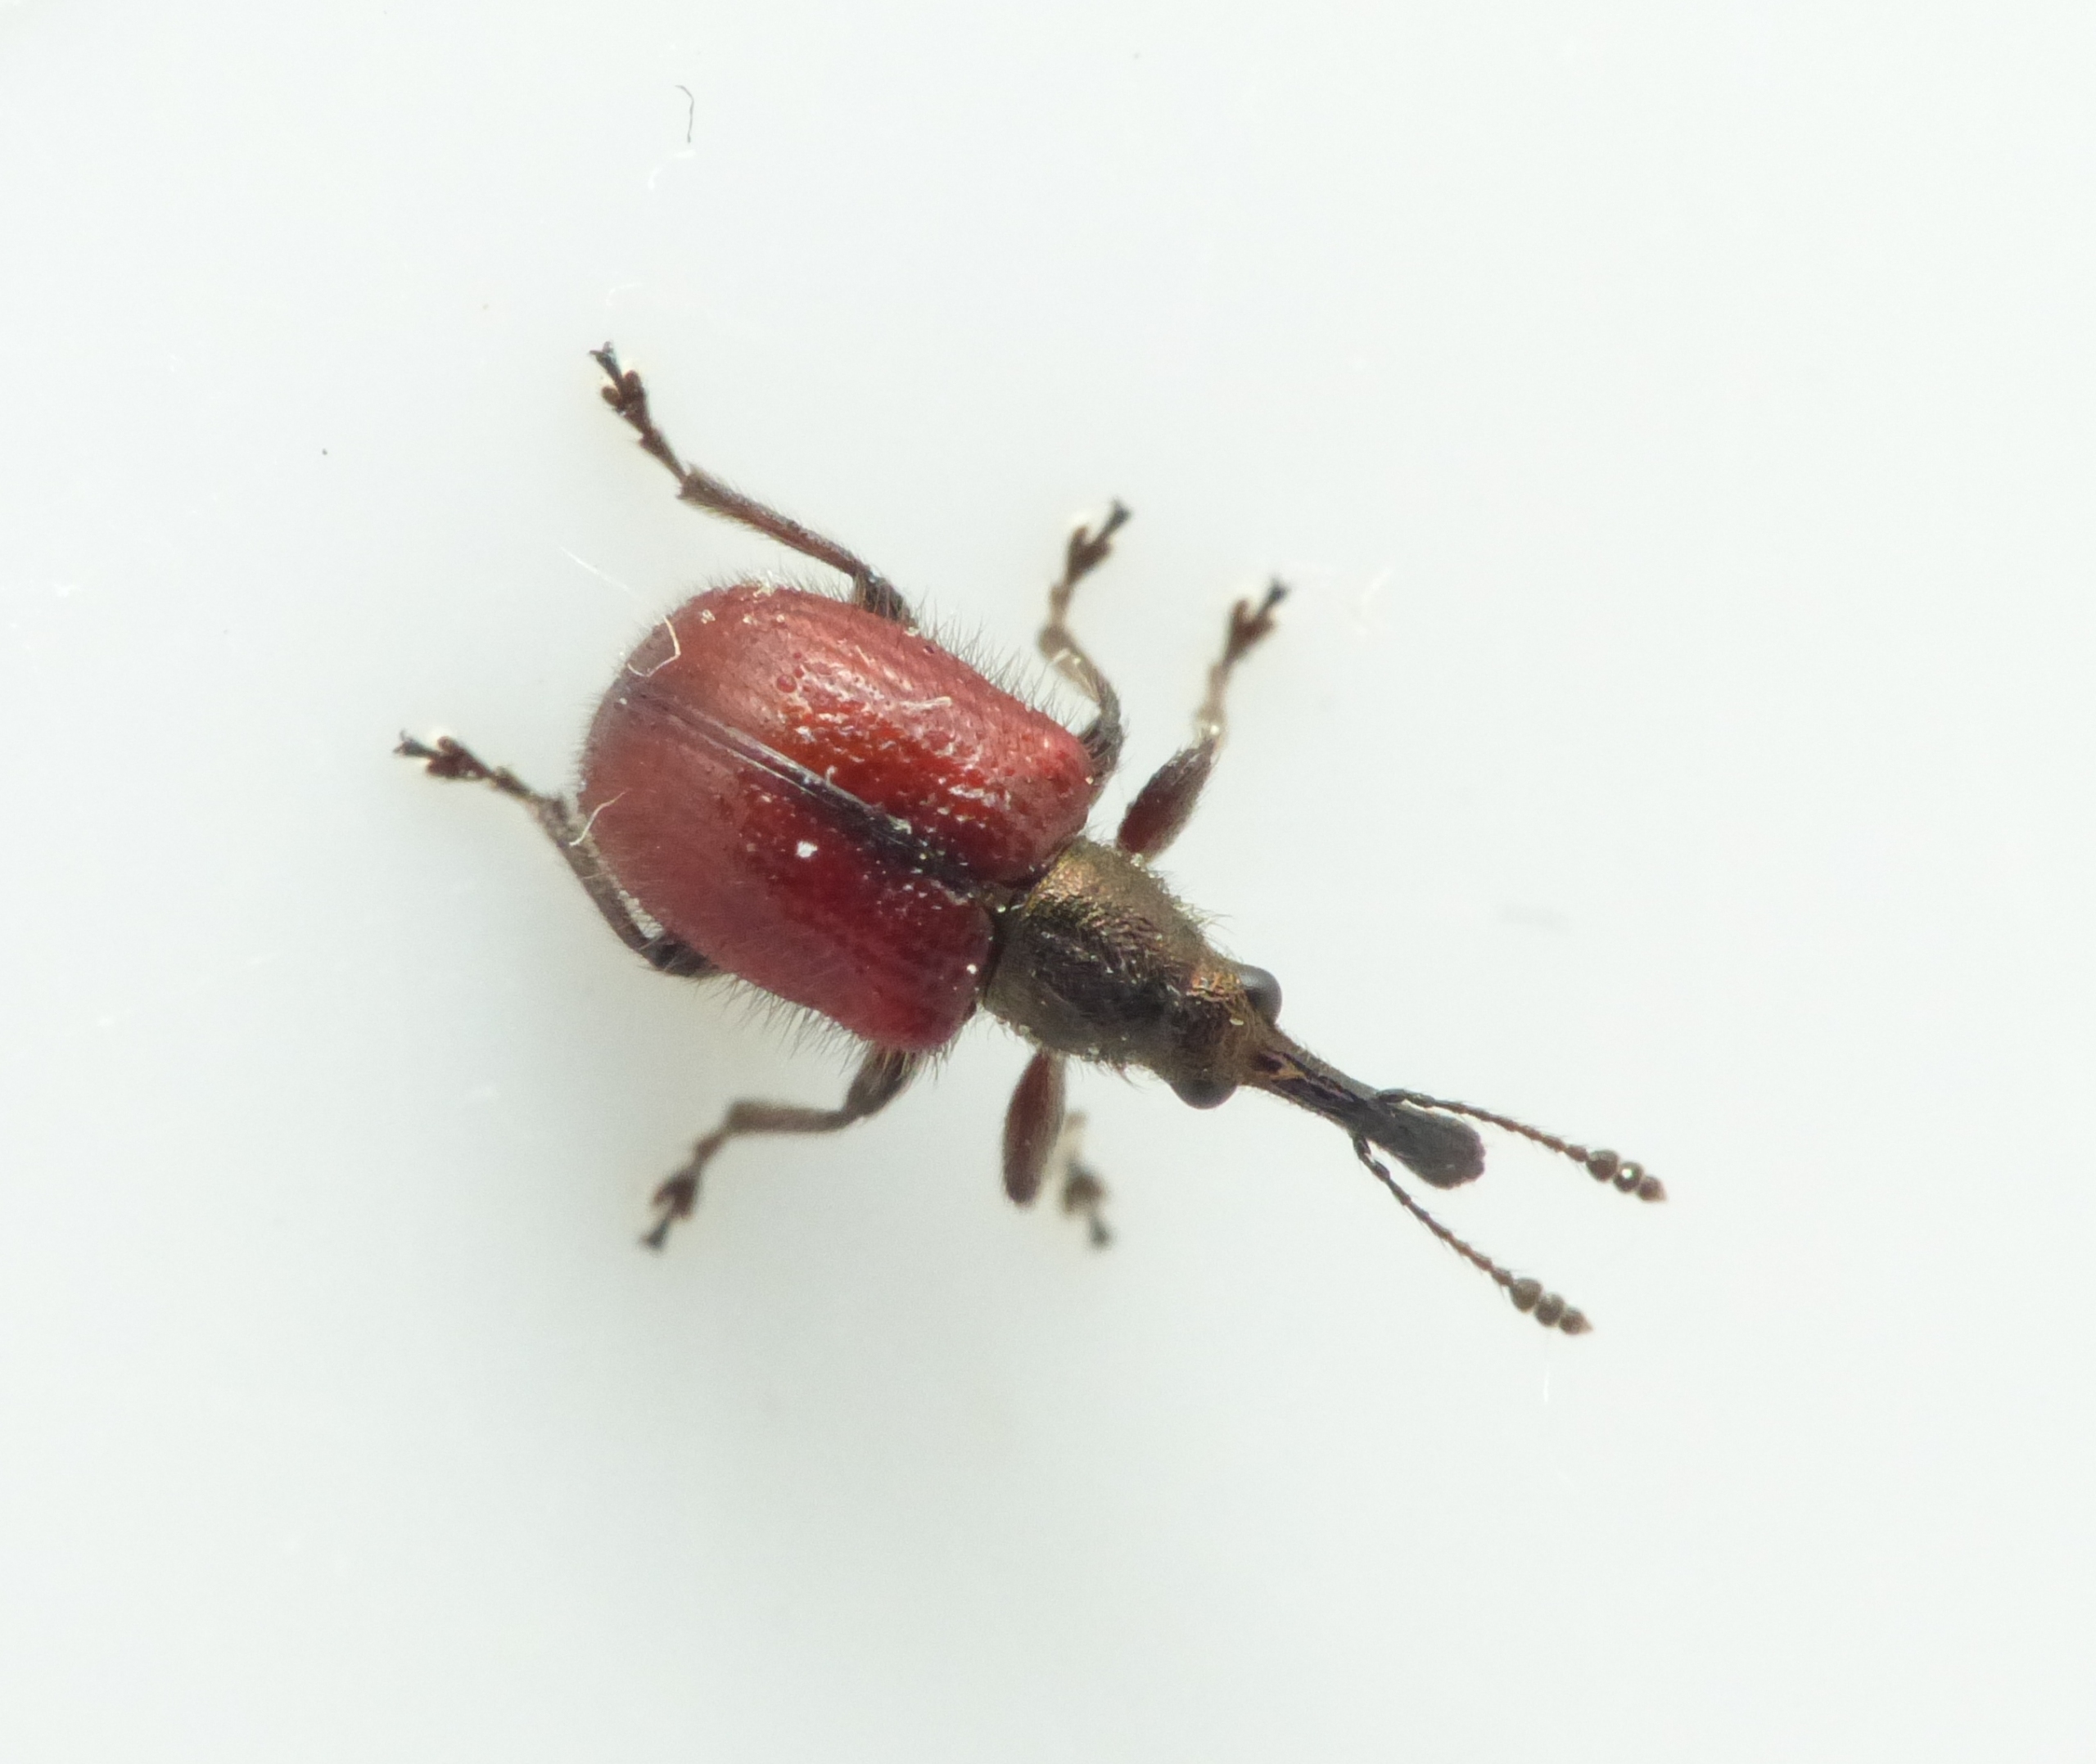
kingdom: Animalia
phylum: Arthropoda
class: Insecta
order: Coleoptera
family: Rhynchitidae
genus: Tatianaerhynchites
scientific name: Tatianaerhynchites aequatus
